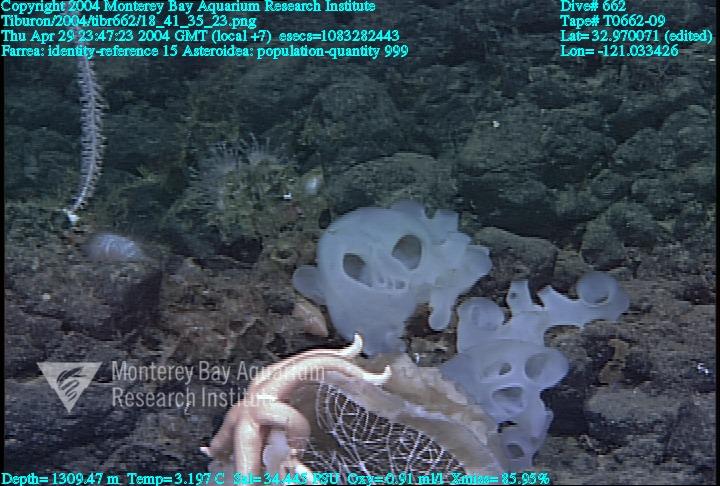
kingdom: Animalia
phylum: Porifera
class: Hexactinellida
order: Sceptrulophora
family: Farreidae
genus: Farrea
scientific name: Farrea
